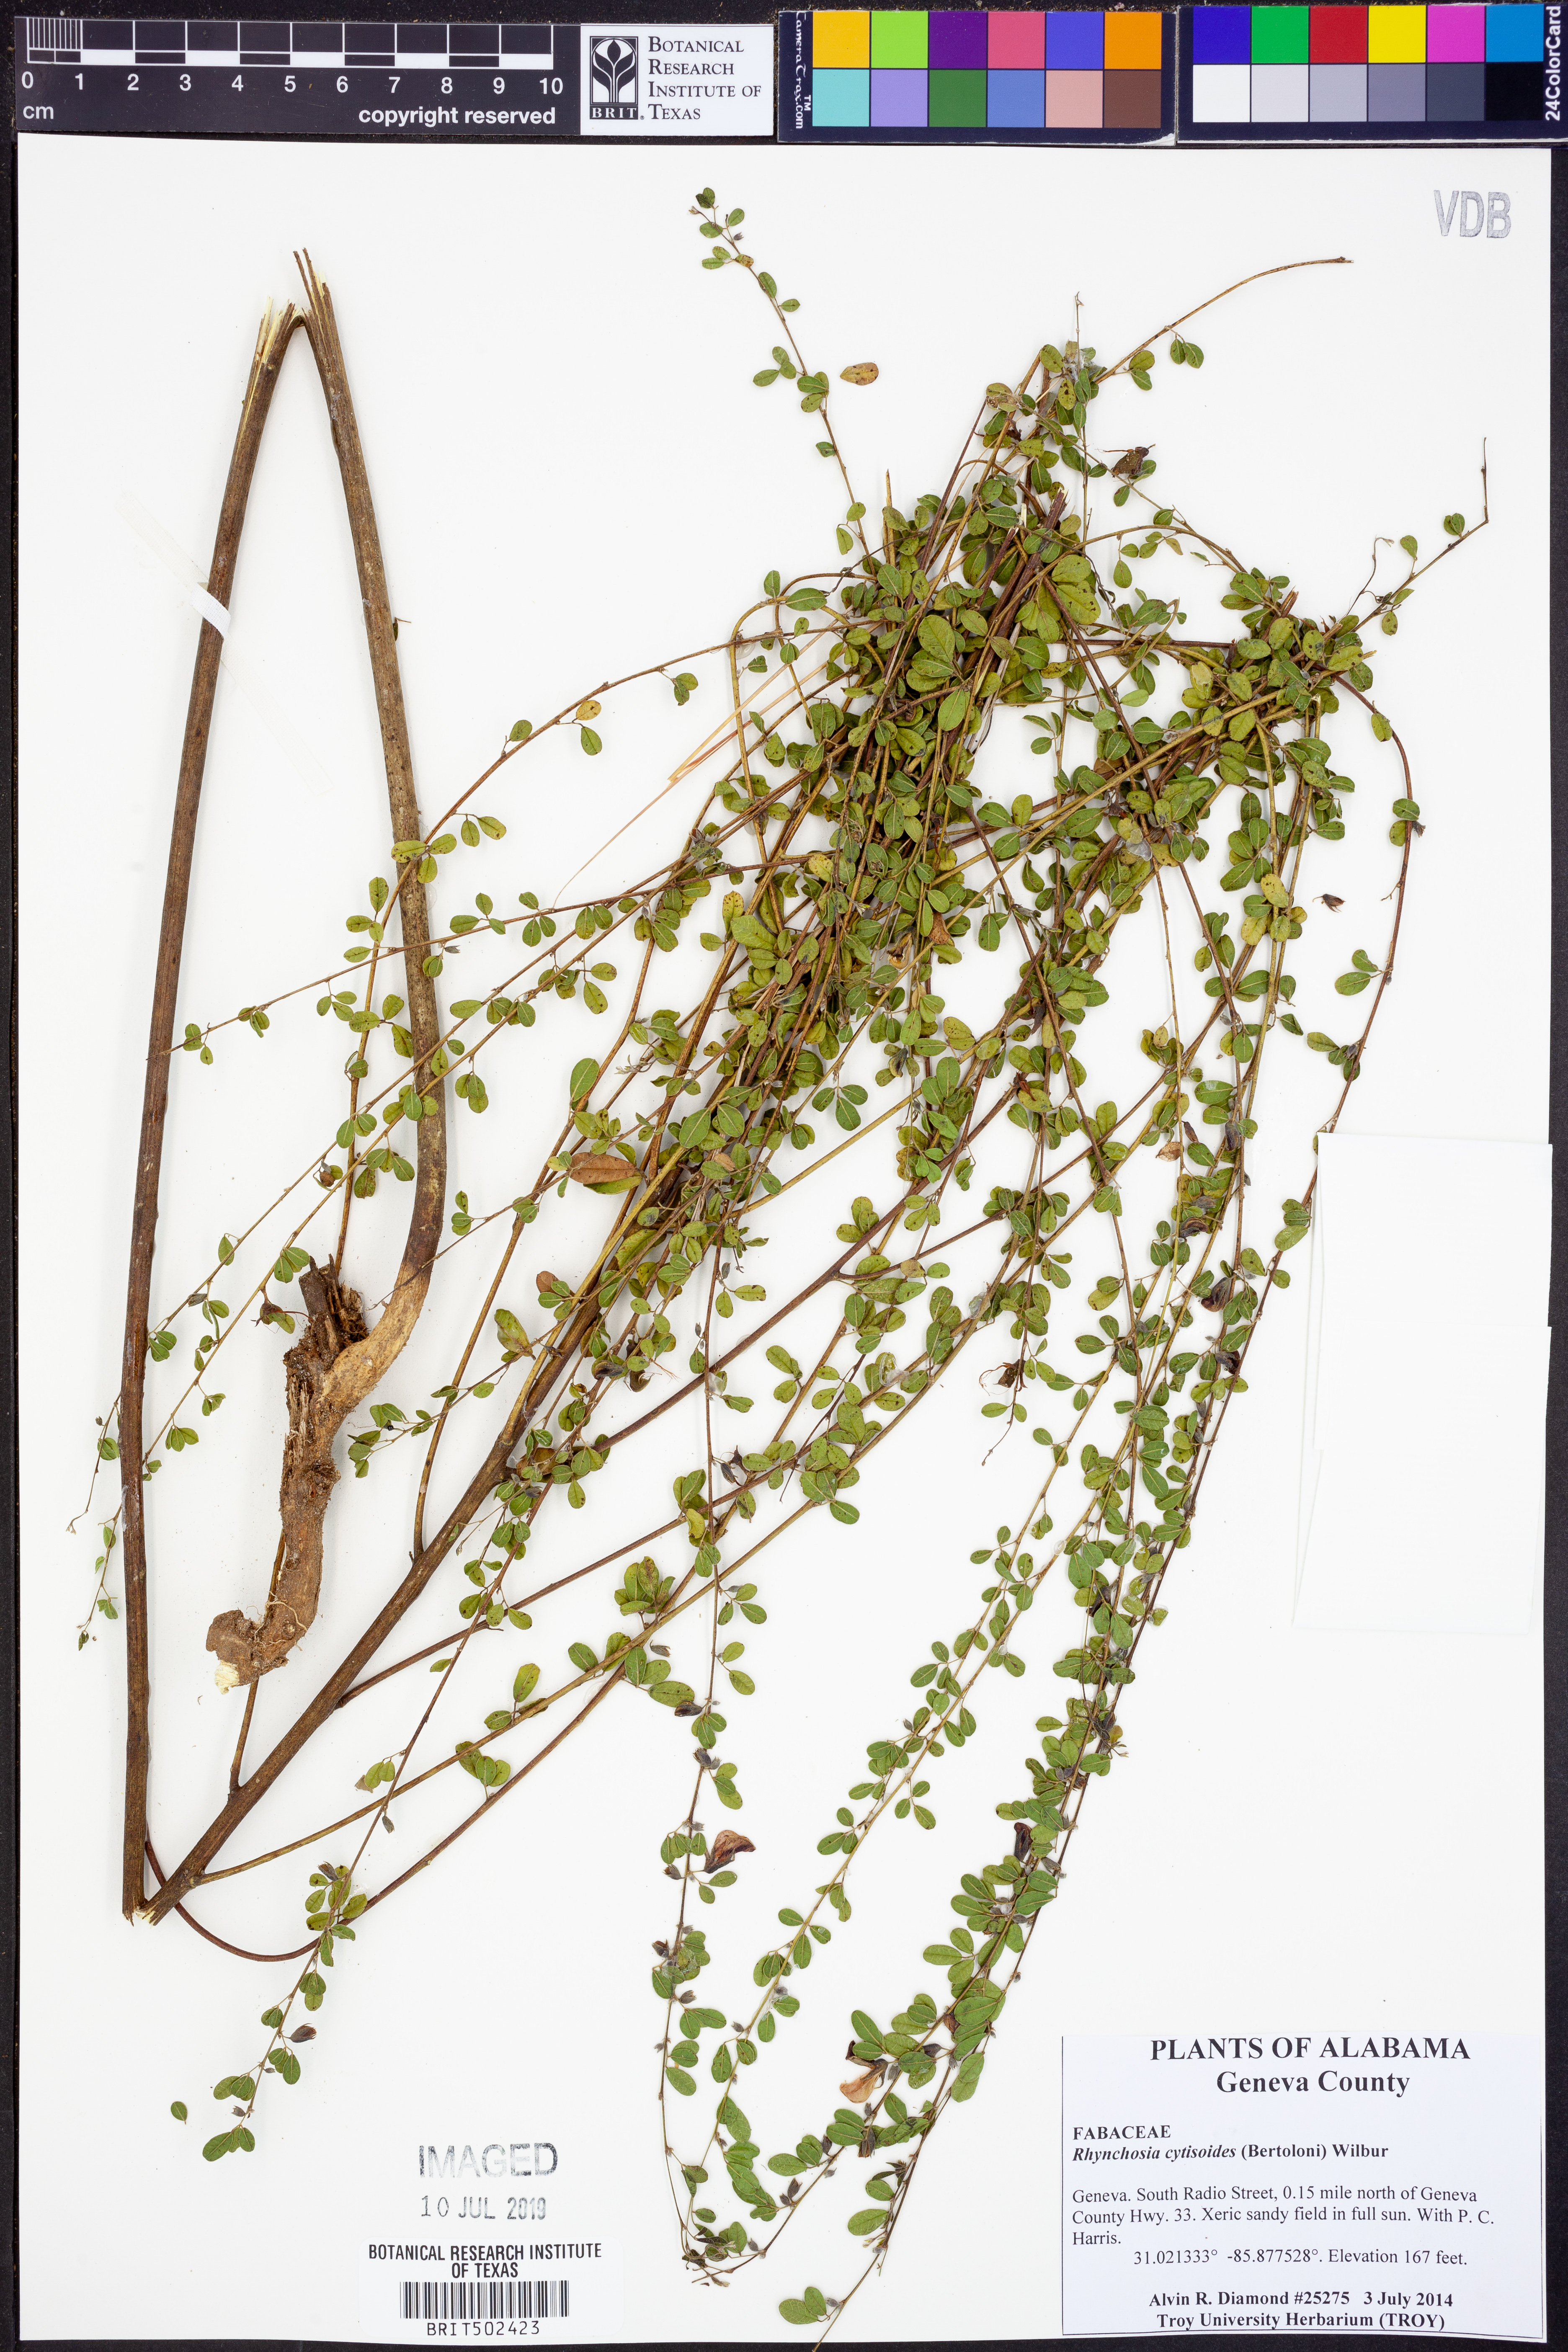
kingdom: Plantae
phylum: Tracheophyta
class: Magnoliopsida
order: Fabales
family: Fabaceae
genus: Rhynchosia
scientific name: Rhynchosia cytisoides
